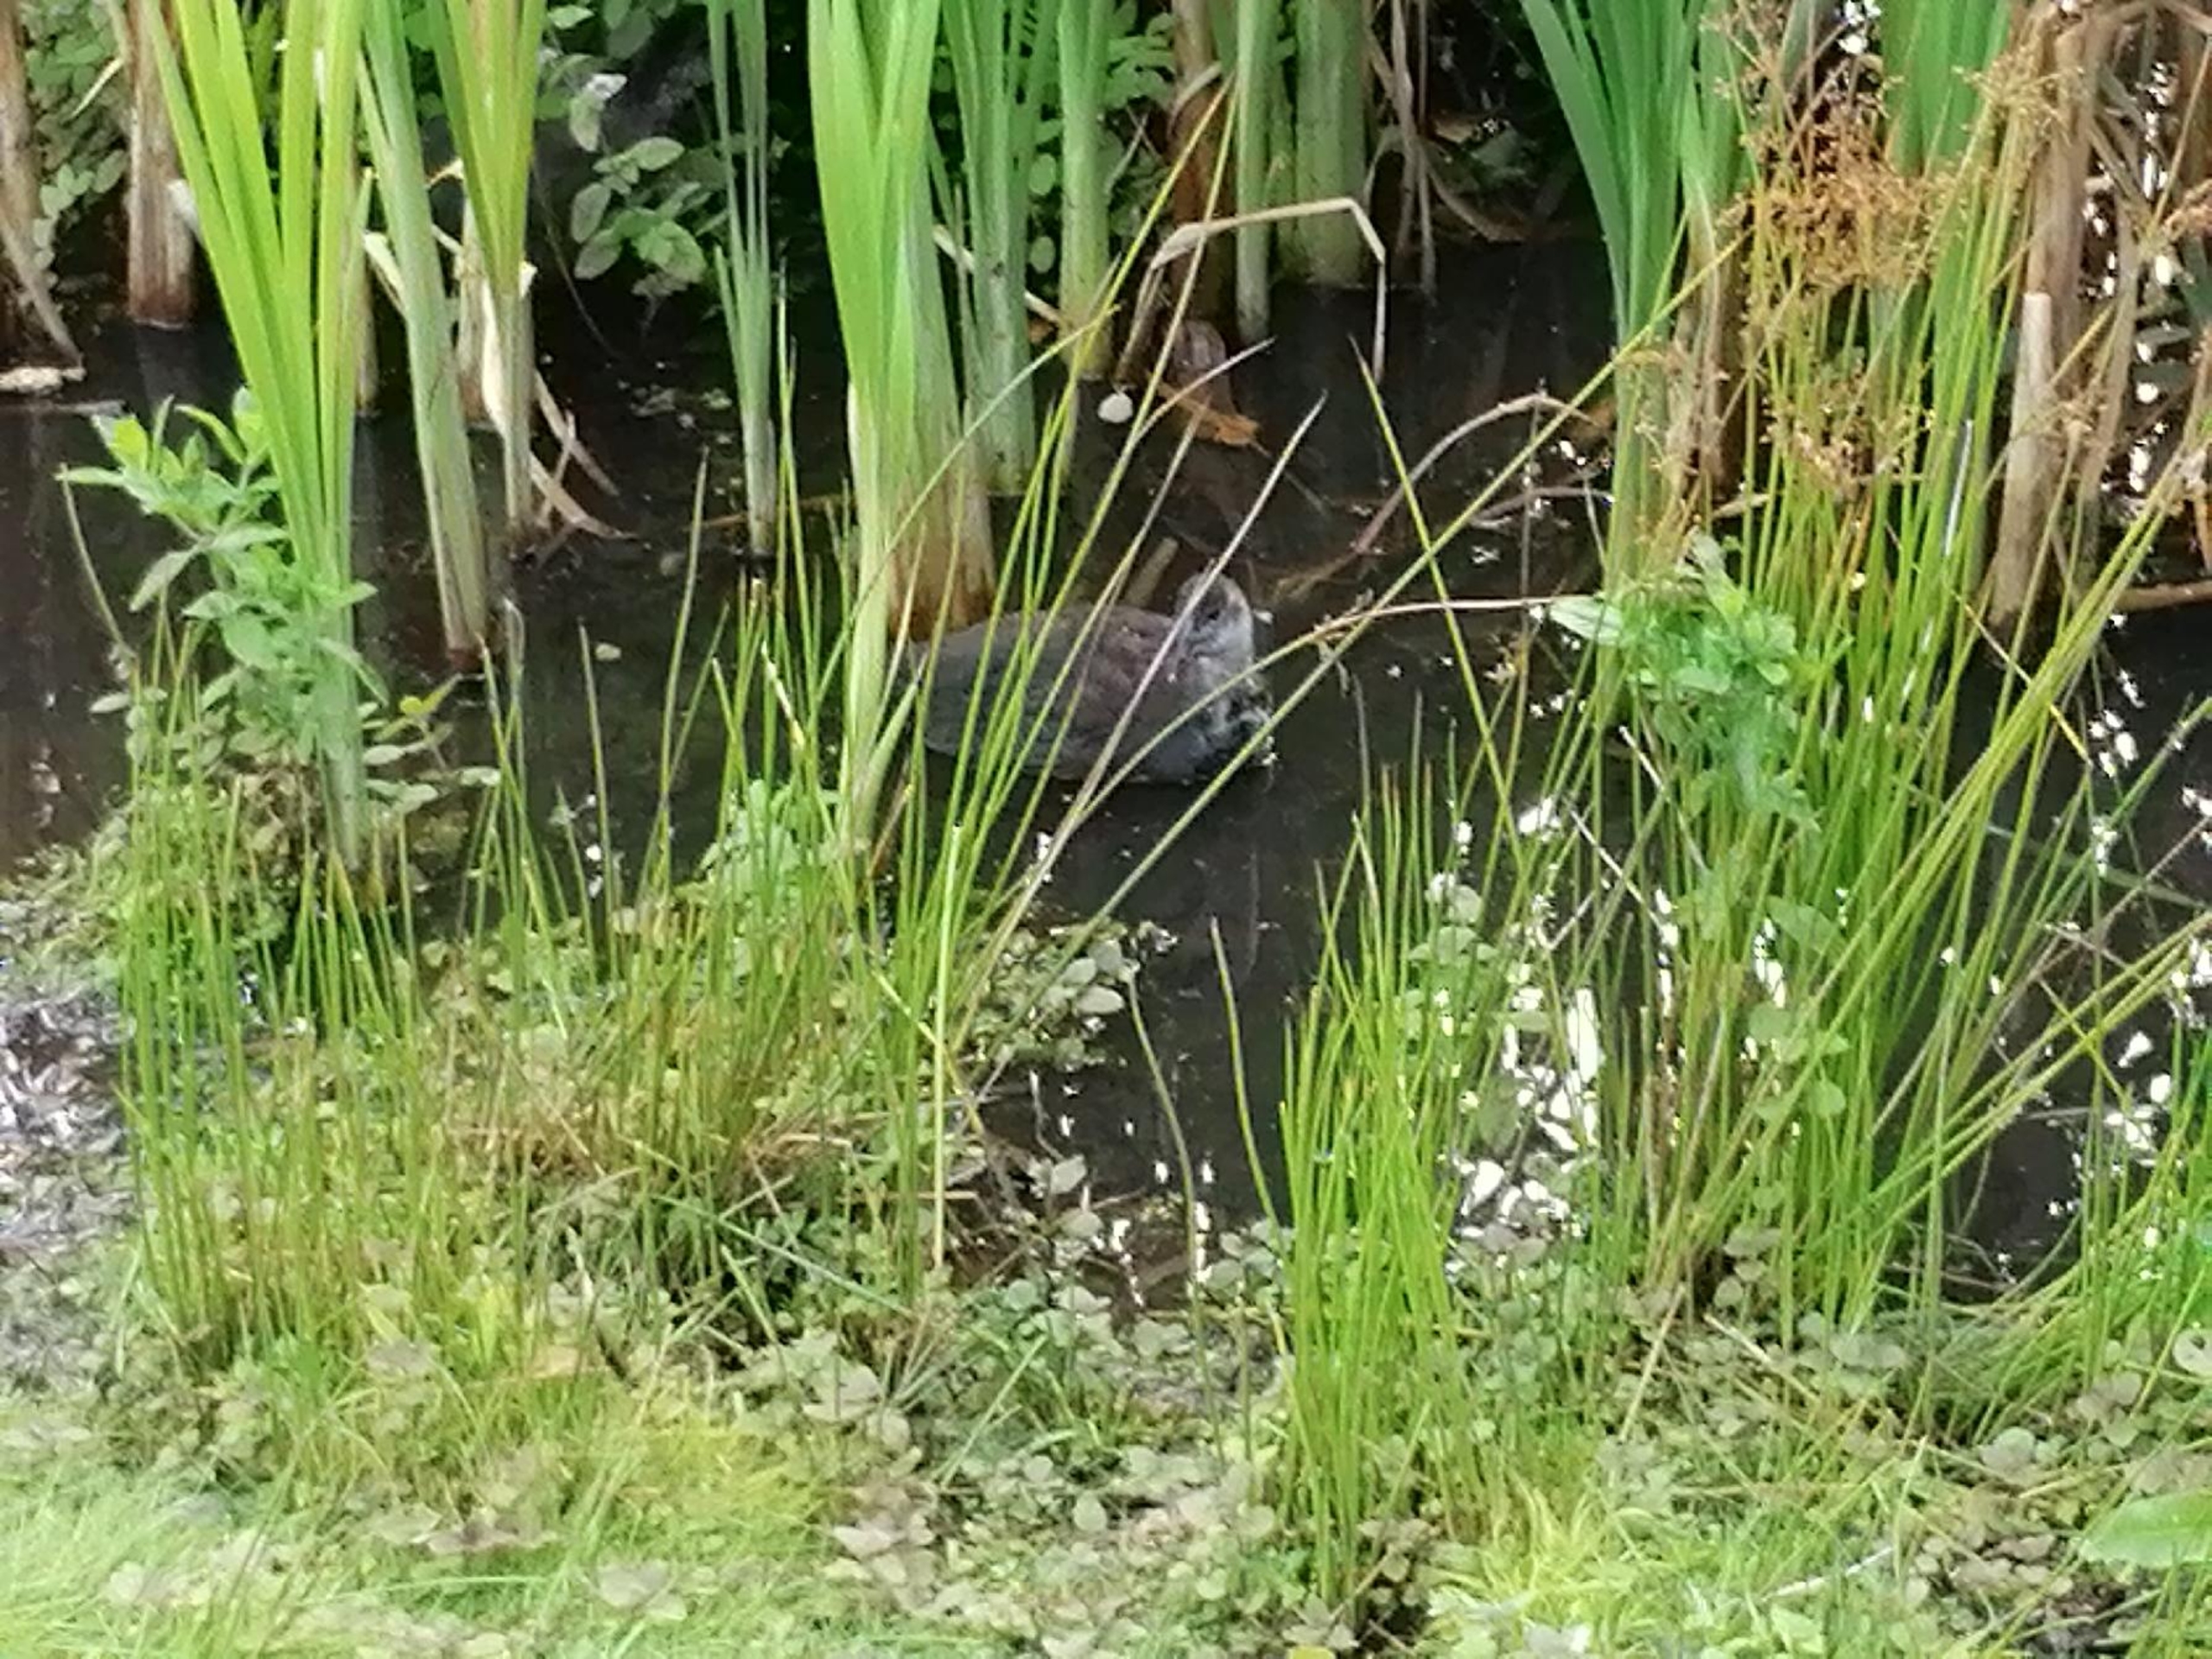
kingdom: Animalia
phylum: Chordata
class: Aves
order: Gruiformes
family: Rallidae
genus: Fulica
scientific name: Fulica atra
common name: Blishøne
